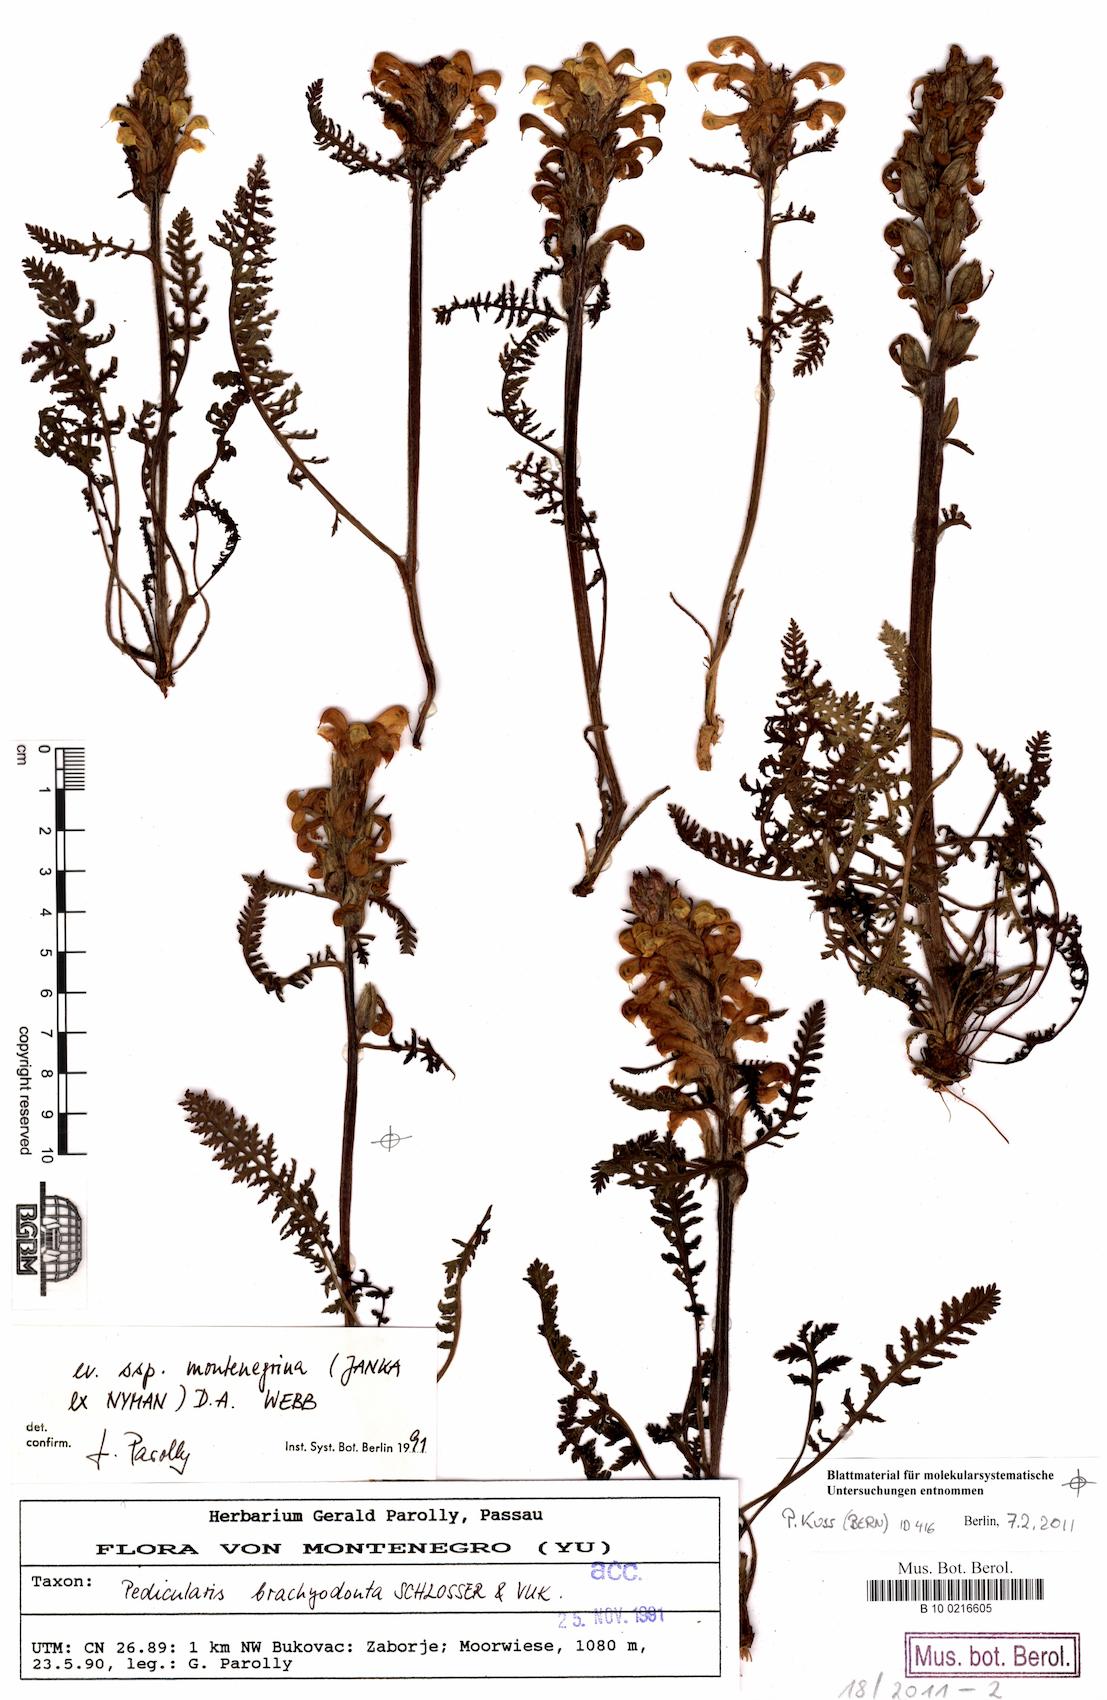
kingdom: Plantae
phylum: Tracheophyta
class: Magnoliopsida
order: Lamiales
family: Orobanchaceae
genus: Pedicularis
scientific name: Pedicularis brachyodonta
